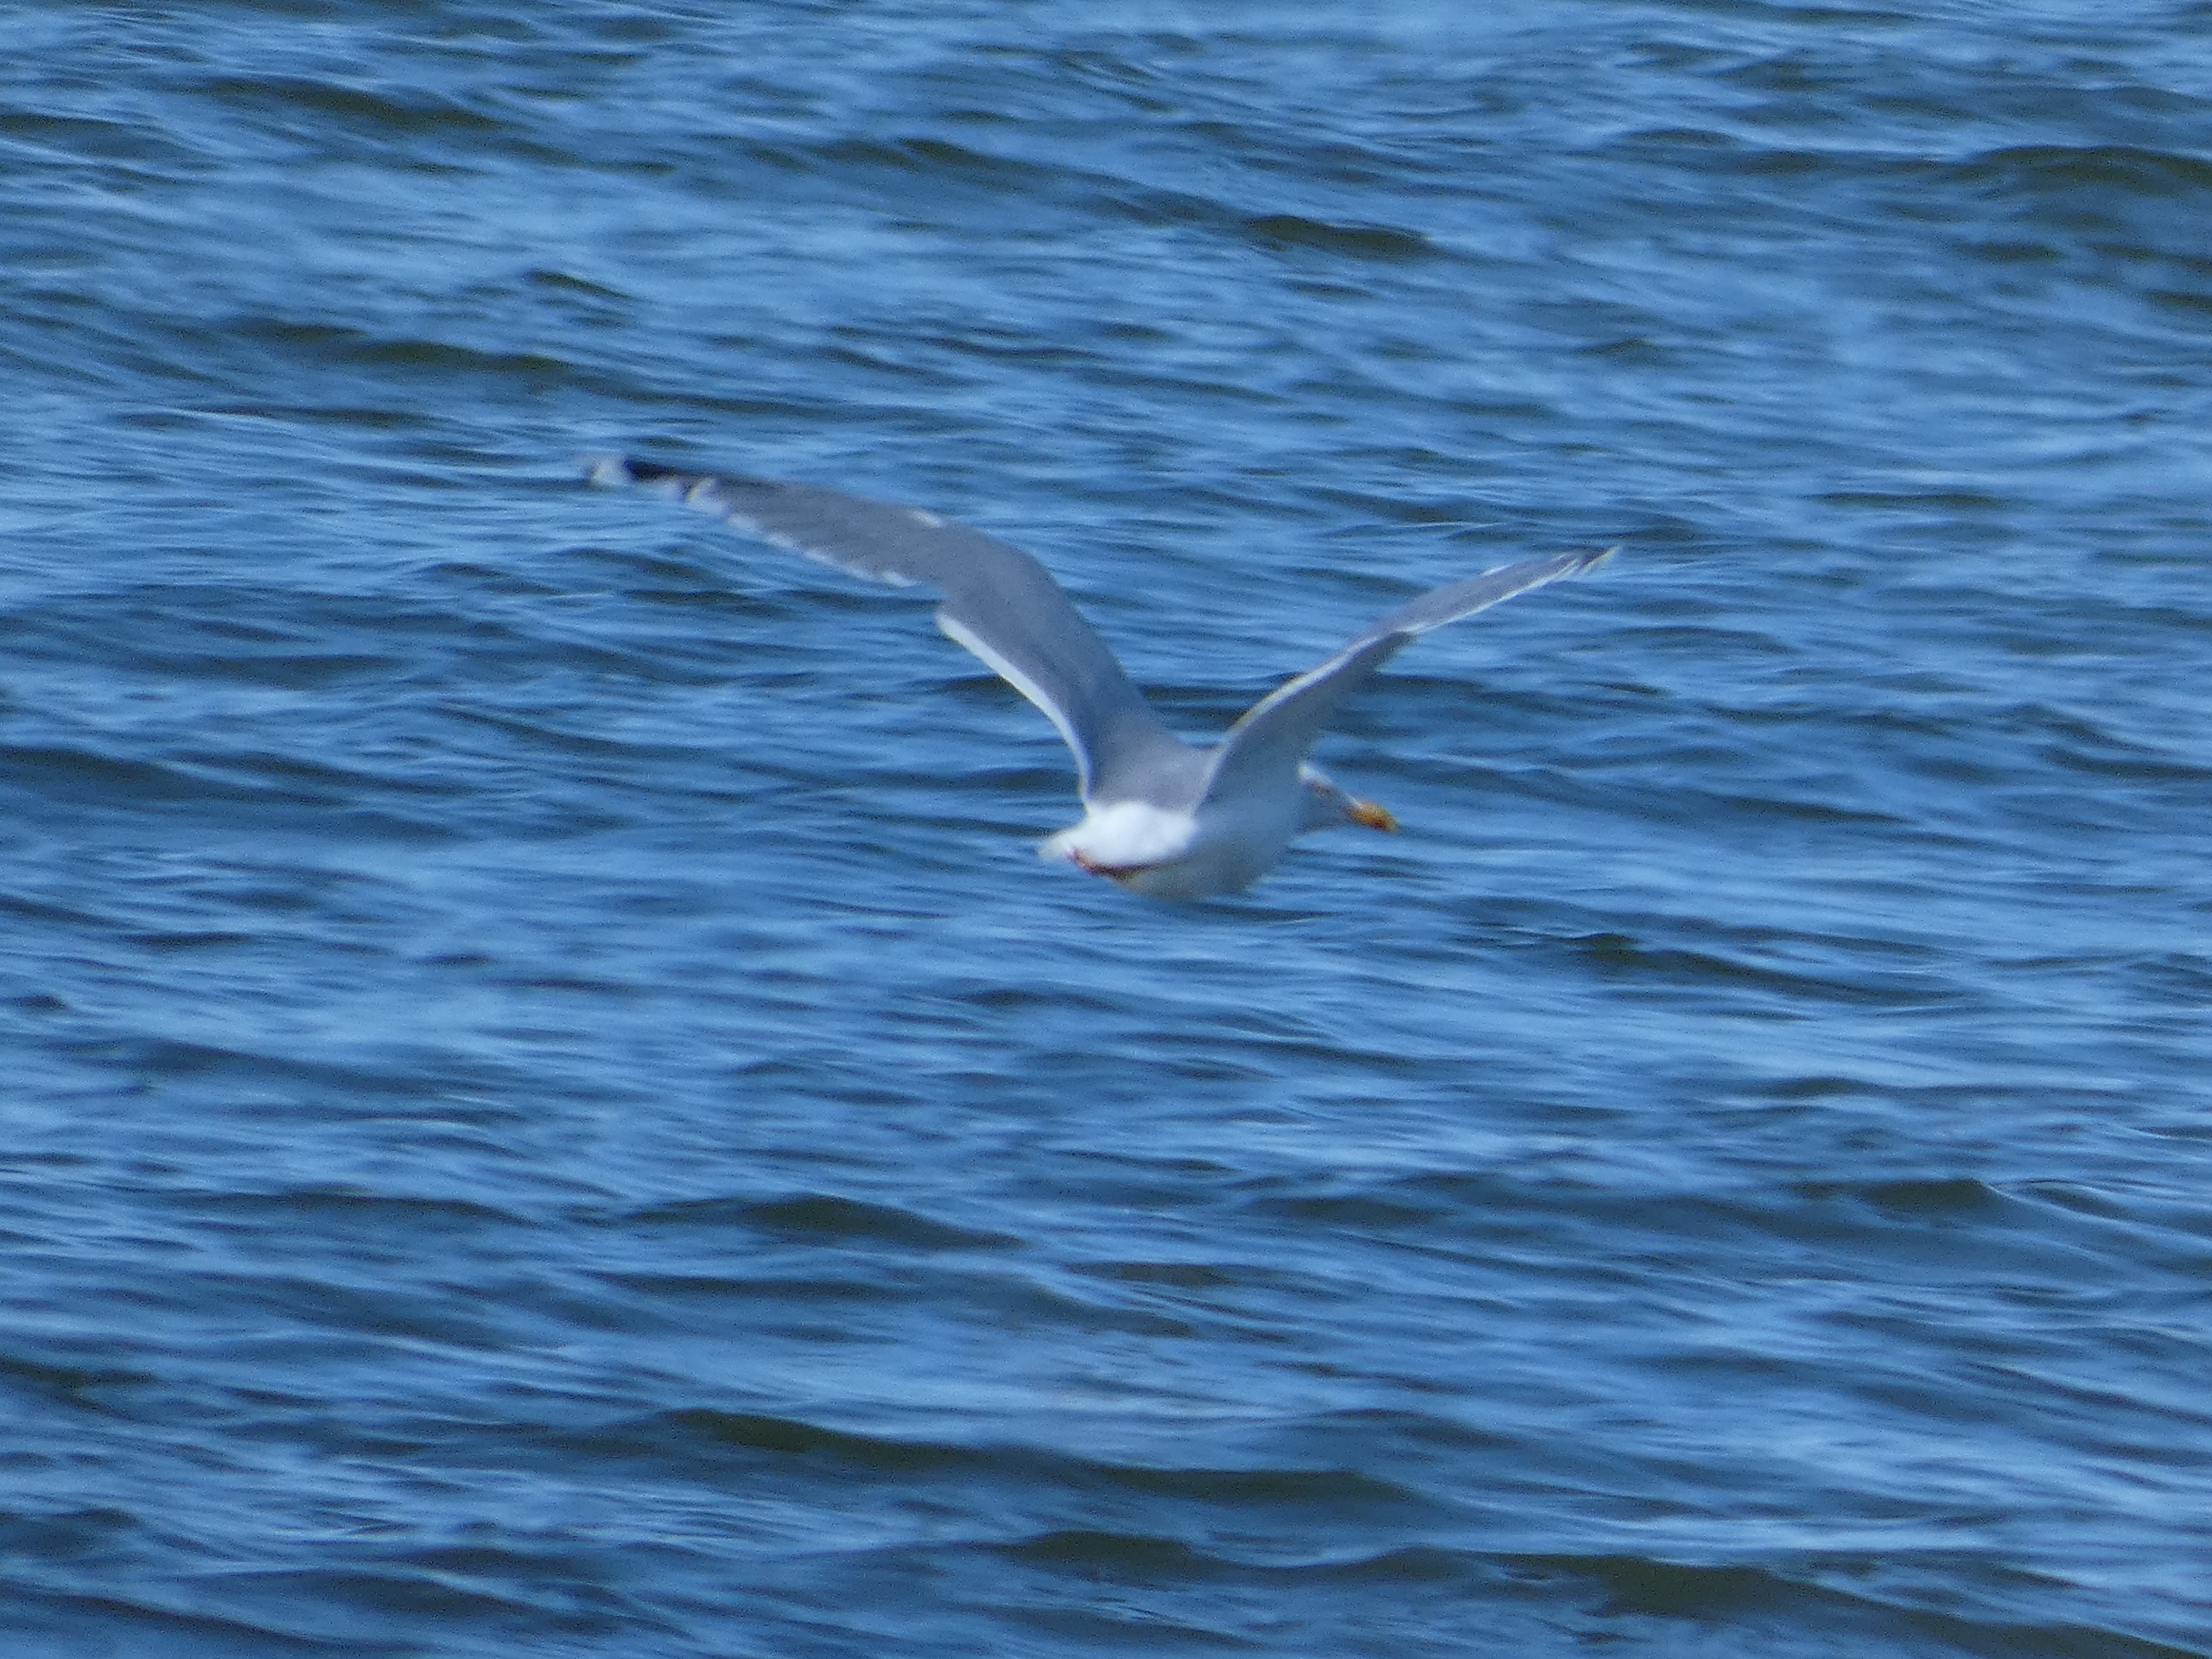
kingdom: Animalia
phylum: Chordata
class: Aves
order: Charadriiformes
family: Laridae
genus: Larus
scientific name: Larus argentatus
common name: Sølvmåge
